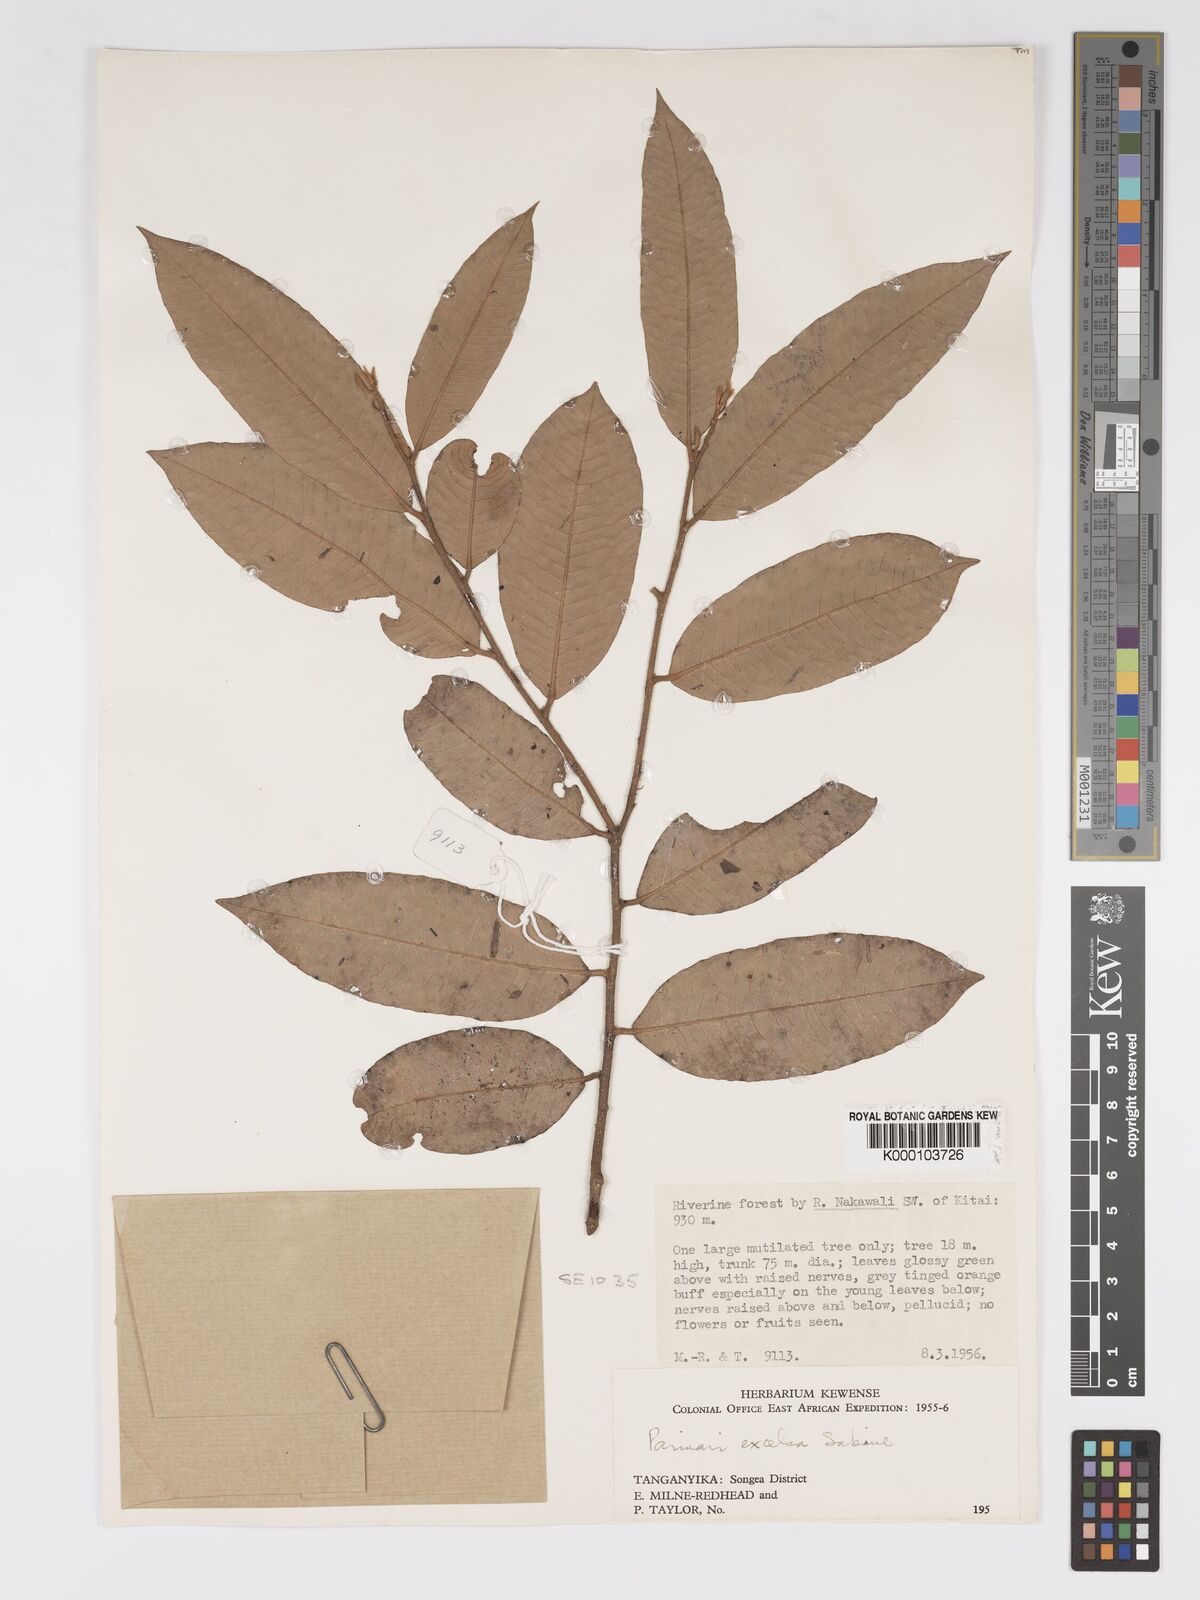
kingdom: Plantae
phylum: Tracheophyta
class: Magnoliopsida
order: Malpighiales
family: Chrysobalanaceae
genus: Parinari
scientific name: Parinari excelsa
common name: Guinea-plum
